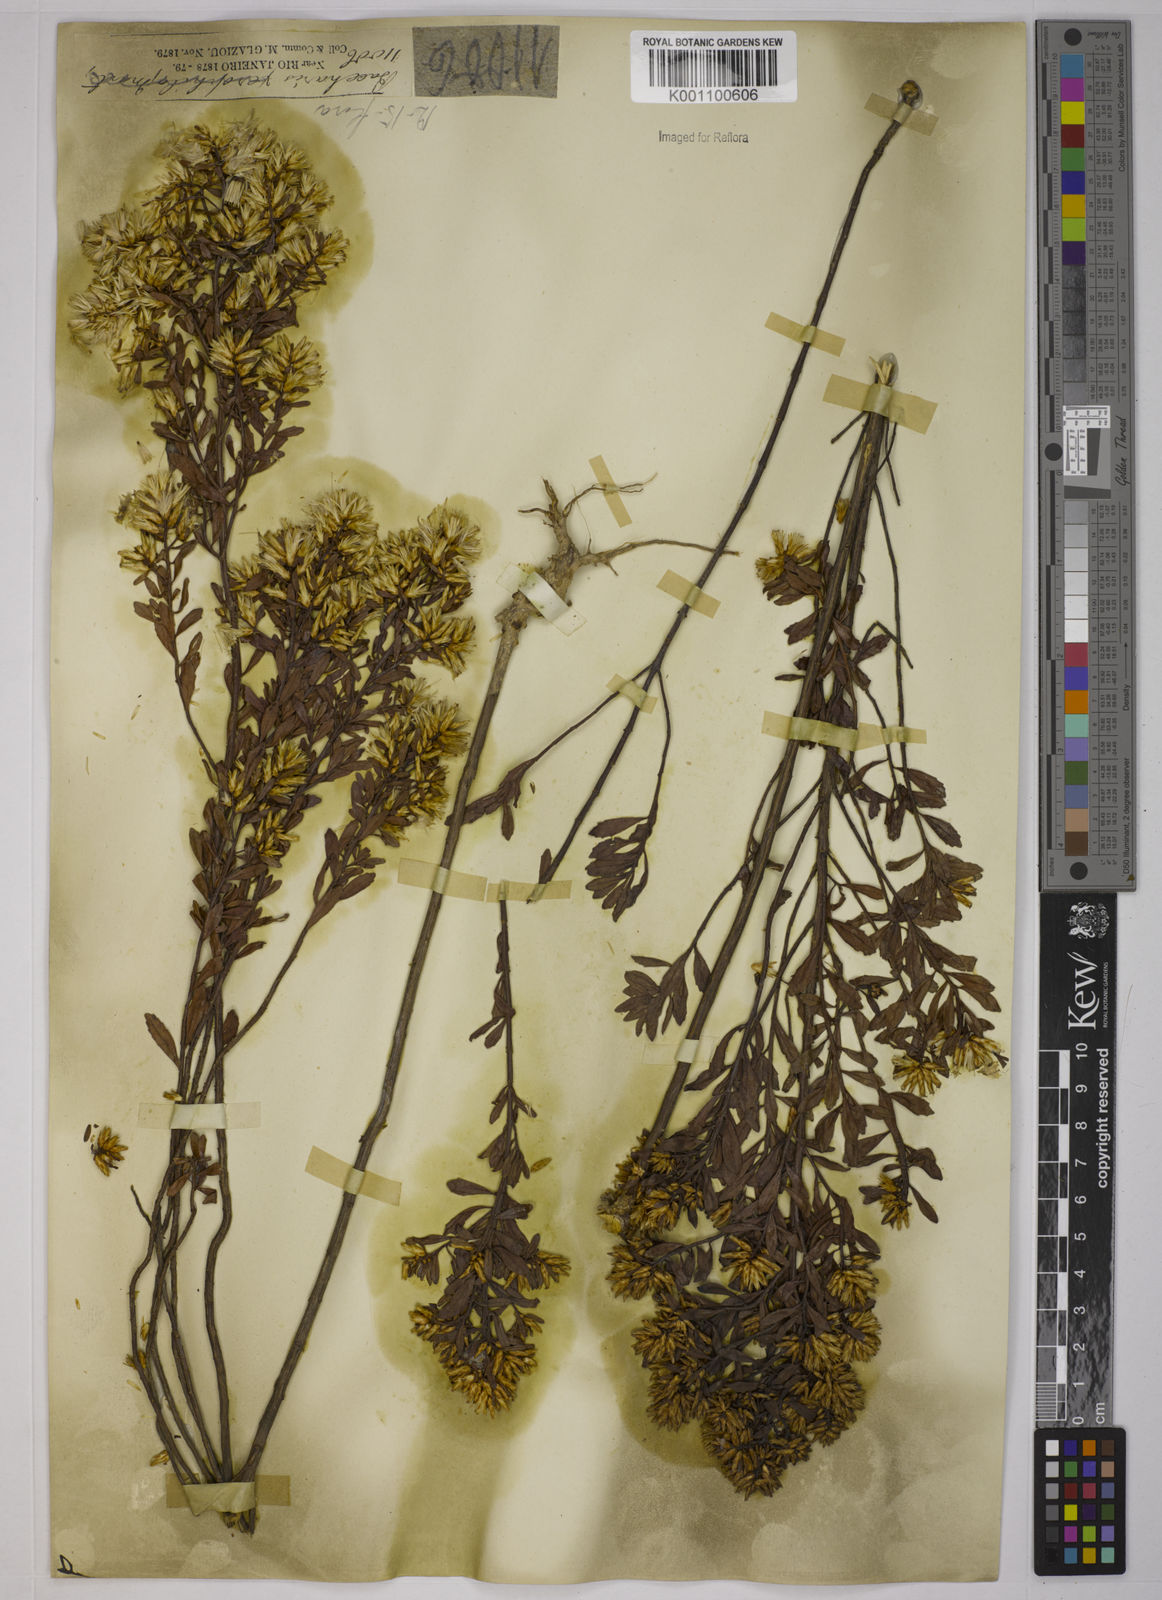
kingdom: Plantae
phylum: Tracheophyta
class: Magnoliopsida
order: Asterales
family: Asteraceae
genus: Baccharis
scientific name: Baccharis rufescens
